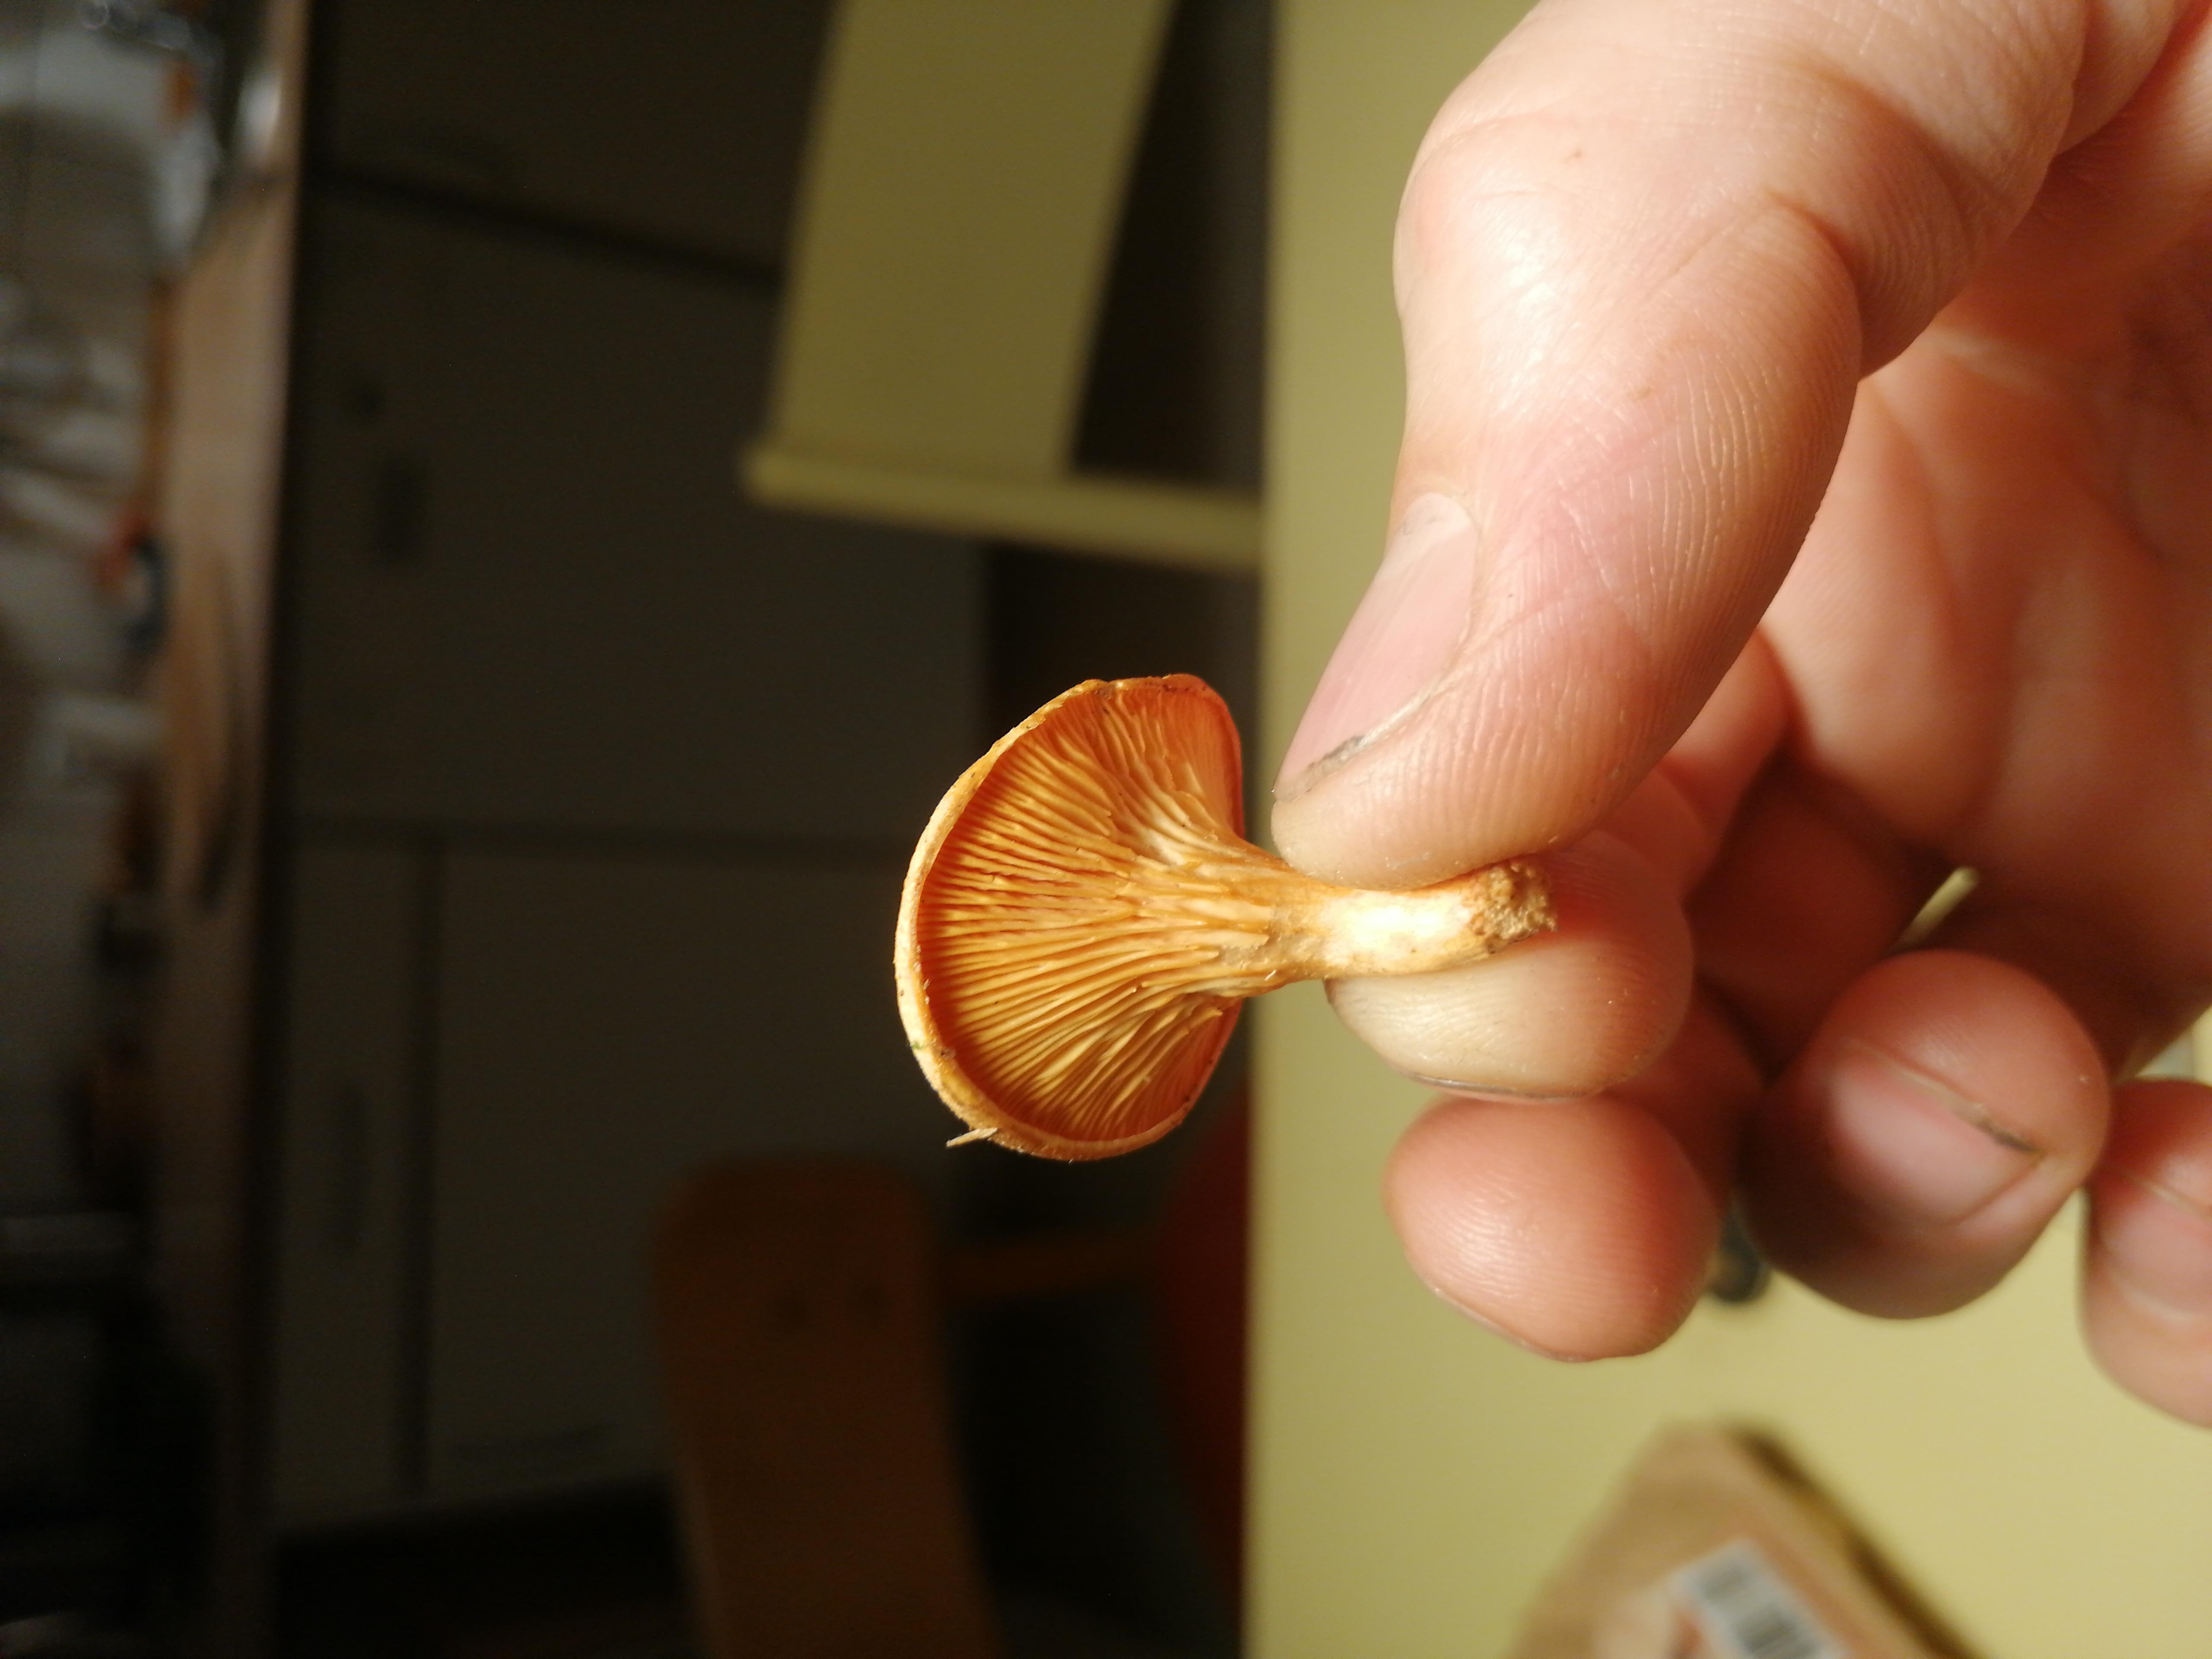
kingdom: Fungi
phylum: Basidiomycota
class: Agaricomycetes
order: Boletales
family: Hygrophoropsidaceae
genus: Hygrophoropsis
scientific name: Hygrophoropsis aurantiaca
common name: almindelig orangekantarel
